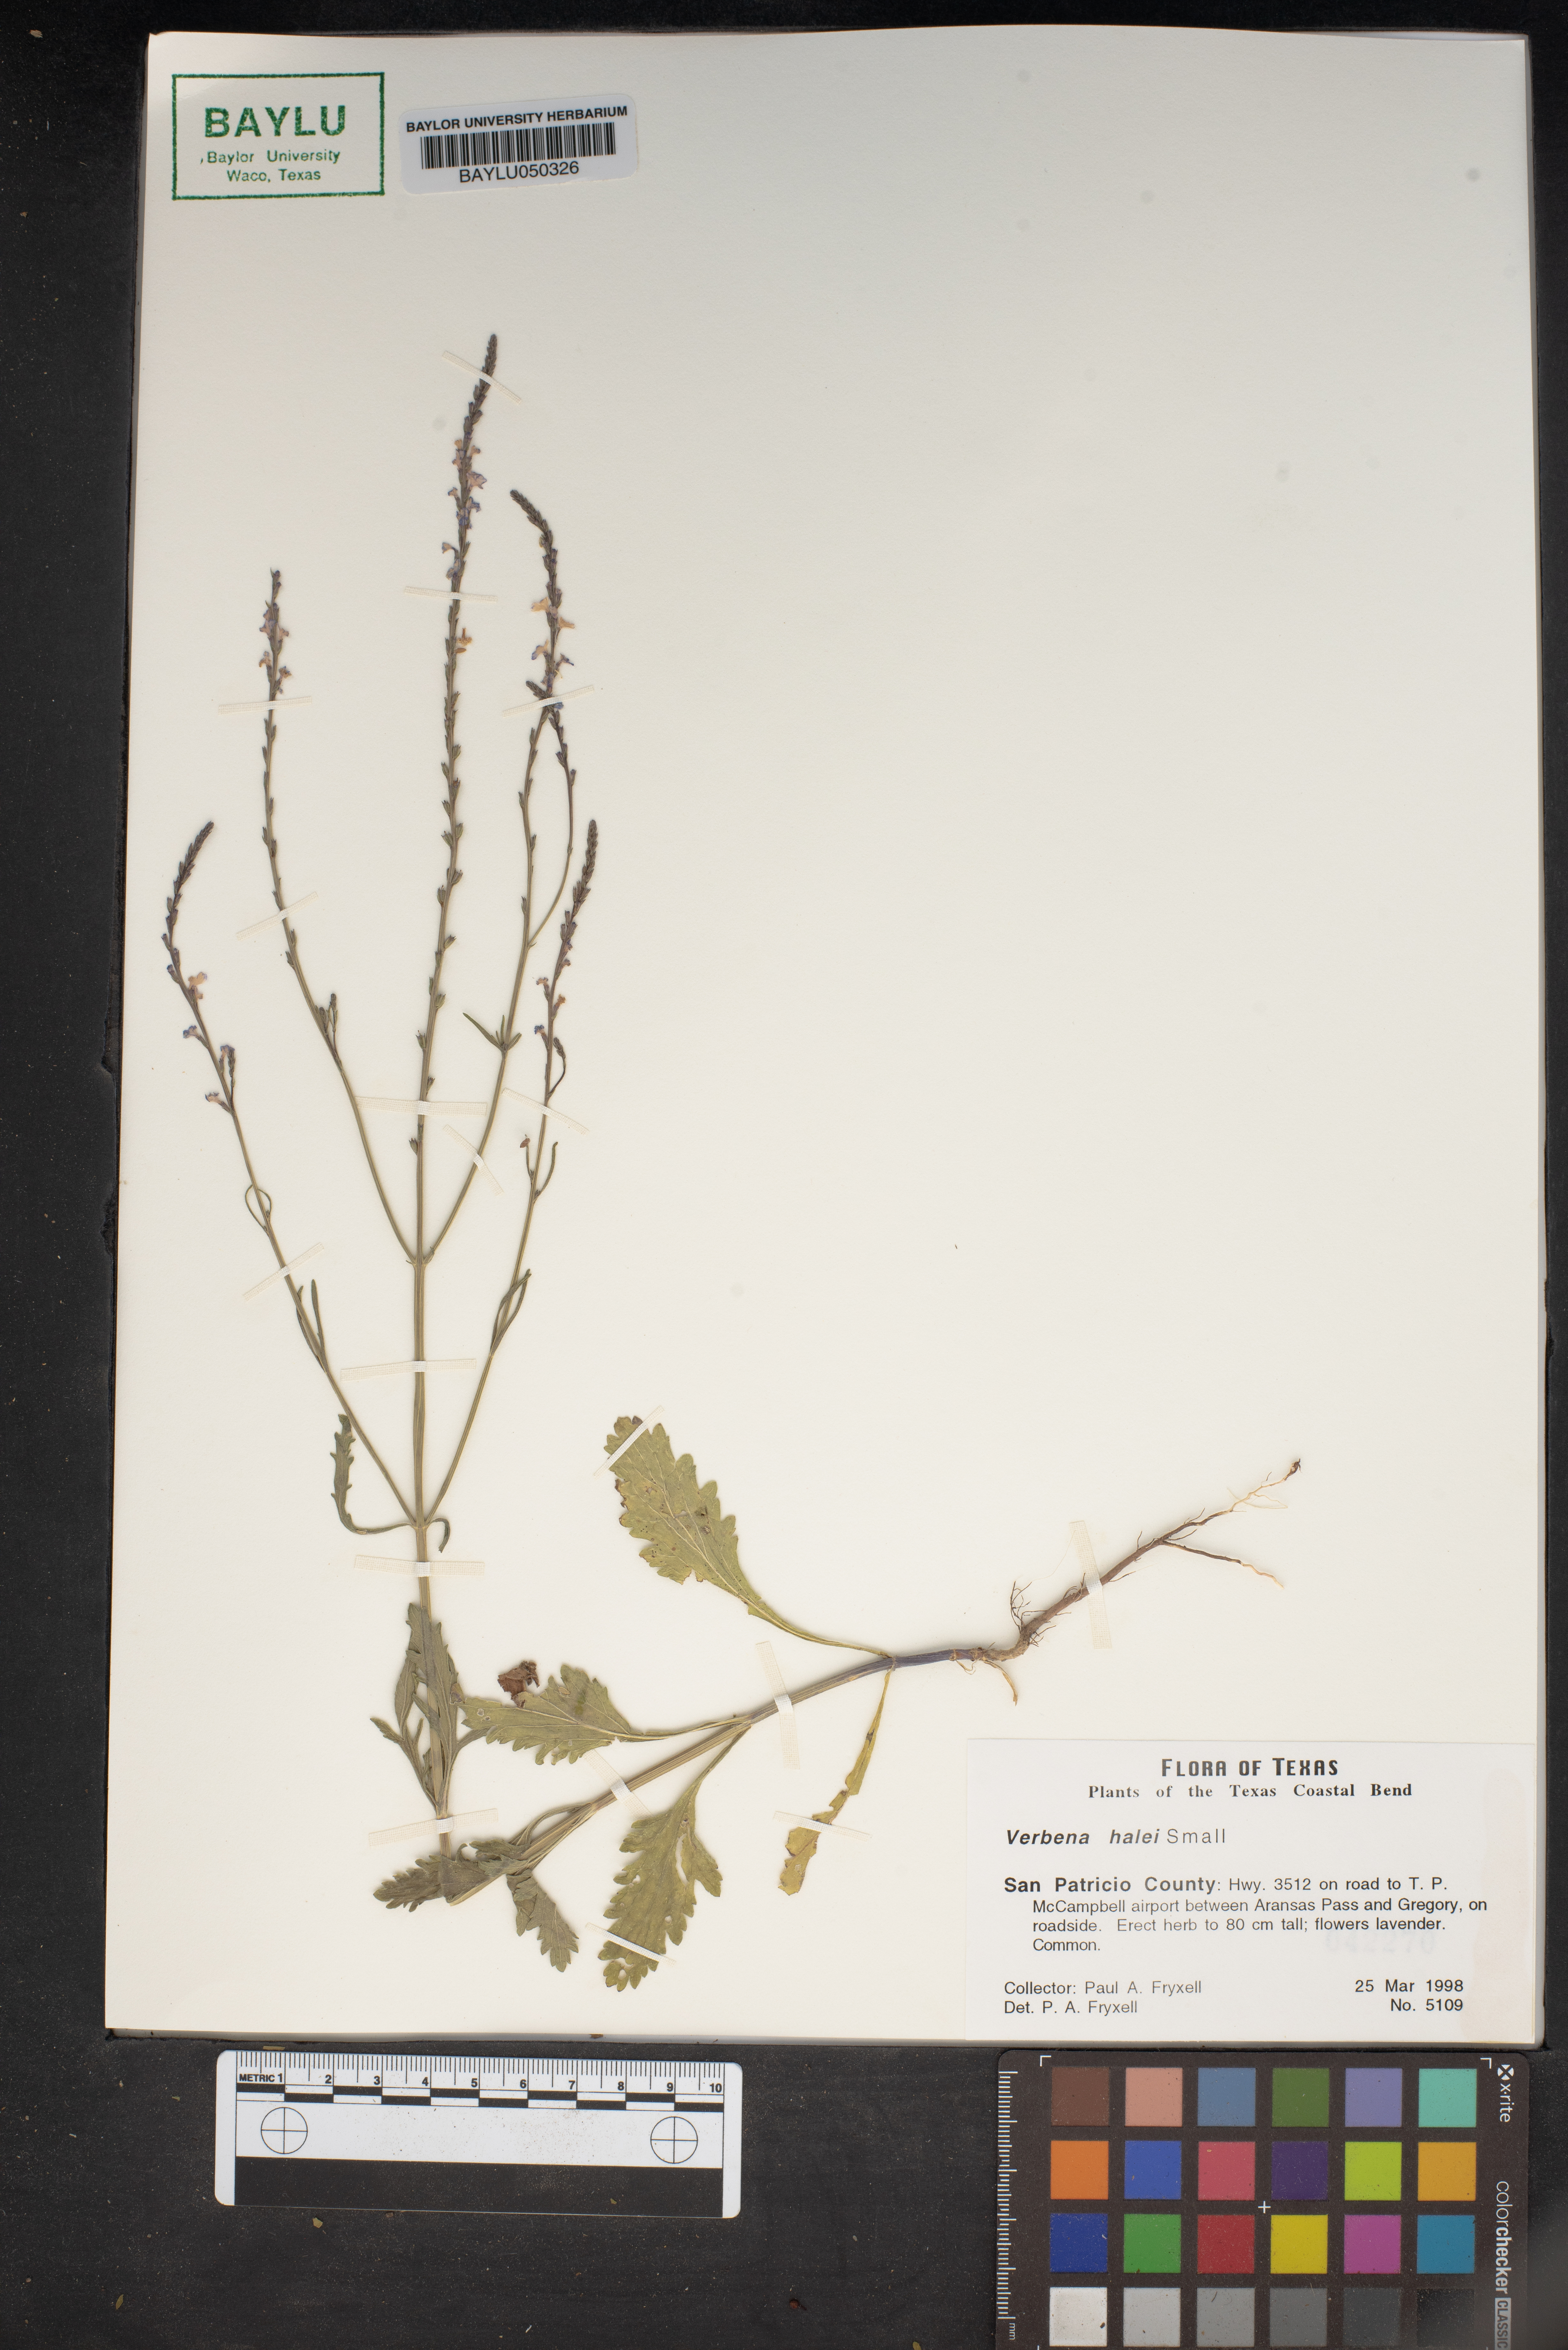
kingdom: Plantae
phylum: Tracheophyta
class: Magnoliopsida
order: Lamiales
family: Verbenaceae
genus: Verbena
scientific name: Verbena halei
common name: Texas vervain
